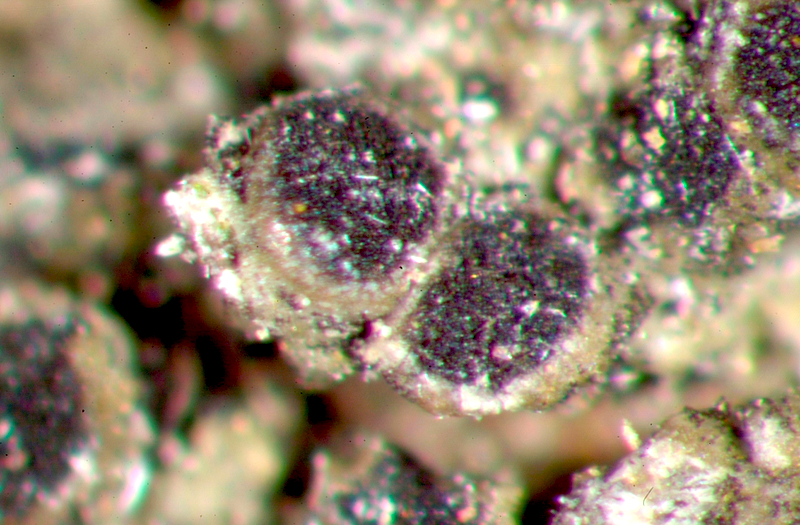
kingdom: Fungi
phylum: Ascomycota
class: Lecanoromycetes
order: Teloschistales
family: Teloschistaceae
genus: Blastenia
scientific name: Blastenia hungarica
